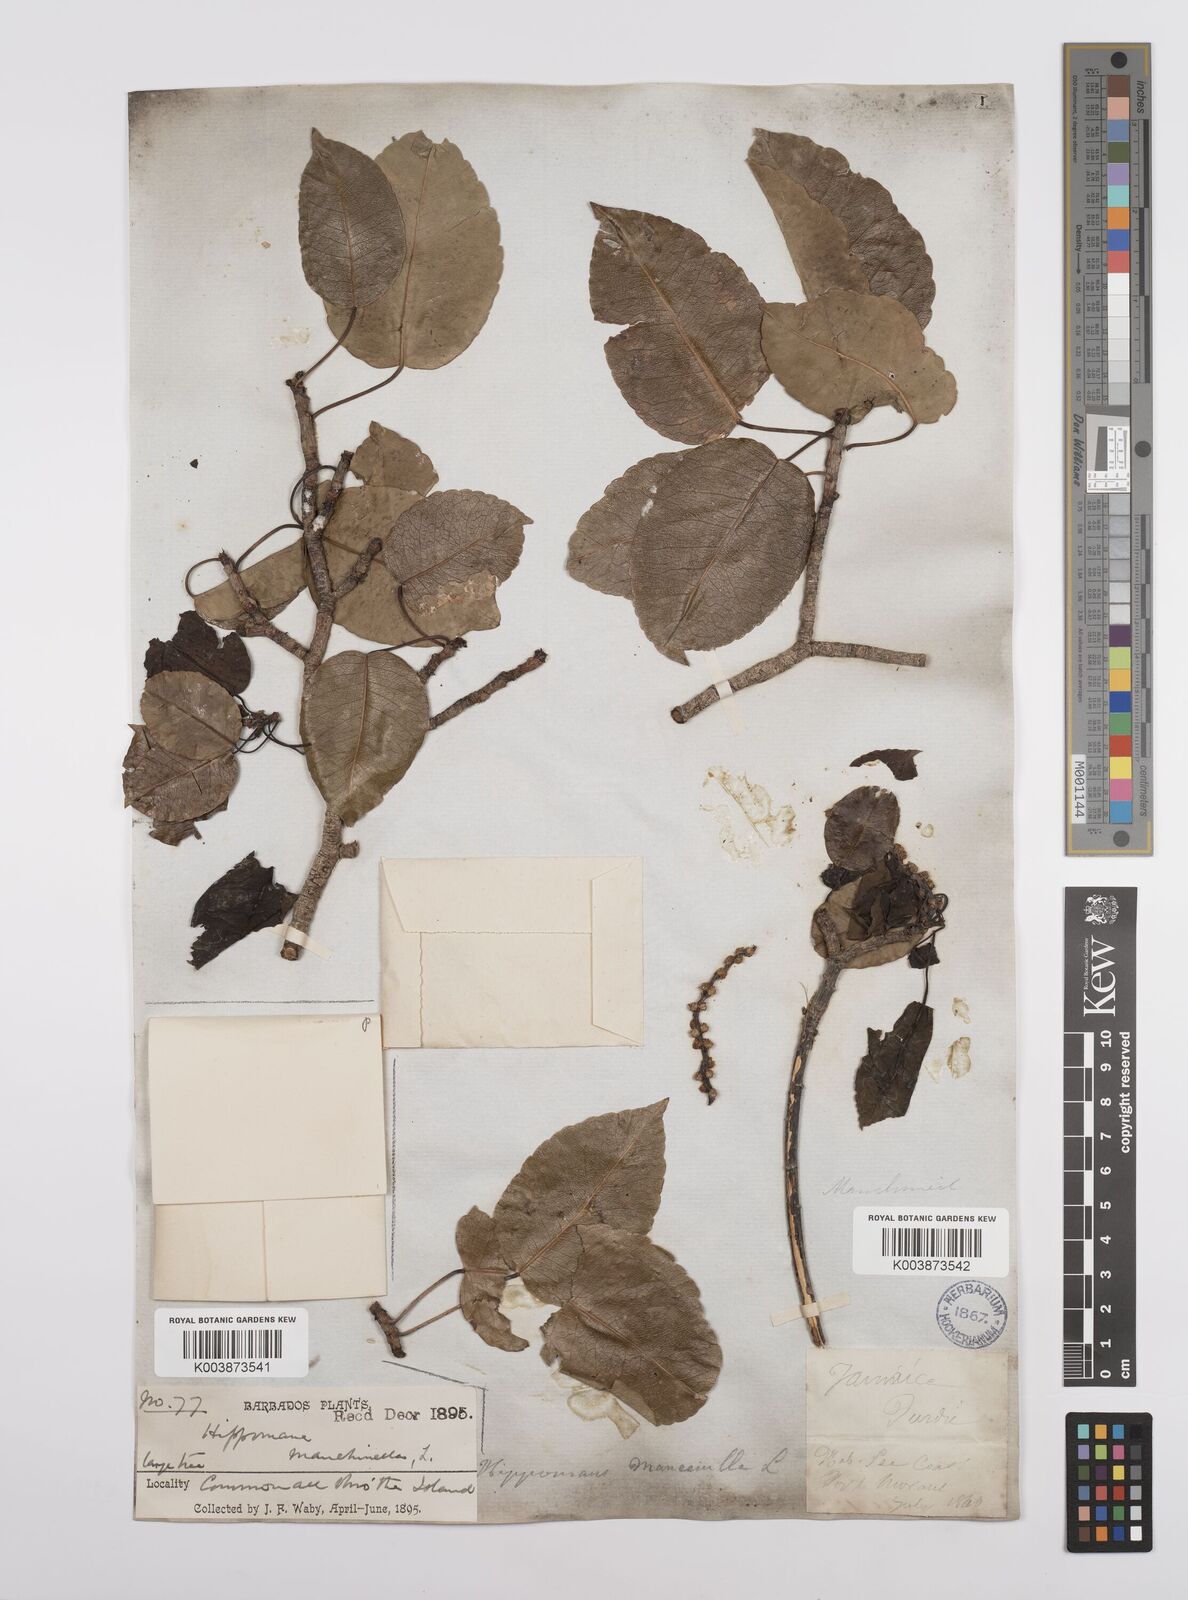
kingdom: Plantae
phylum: Tracheophyta
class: Magnoliopsida
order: Malpighiales
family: Euphorbiaceae
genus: Hippomane
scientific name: Hippomane mancinella
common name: Manchineel
